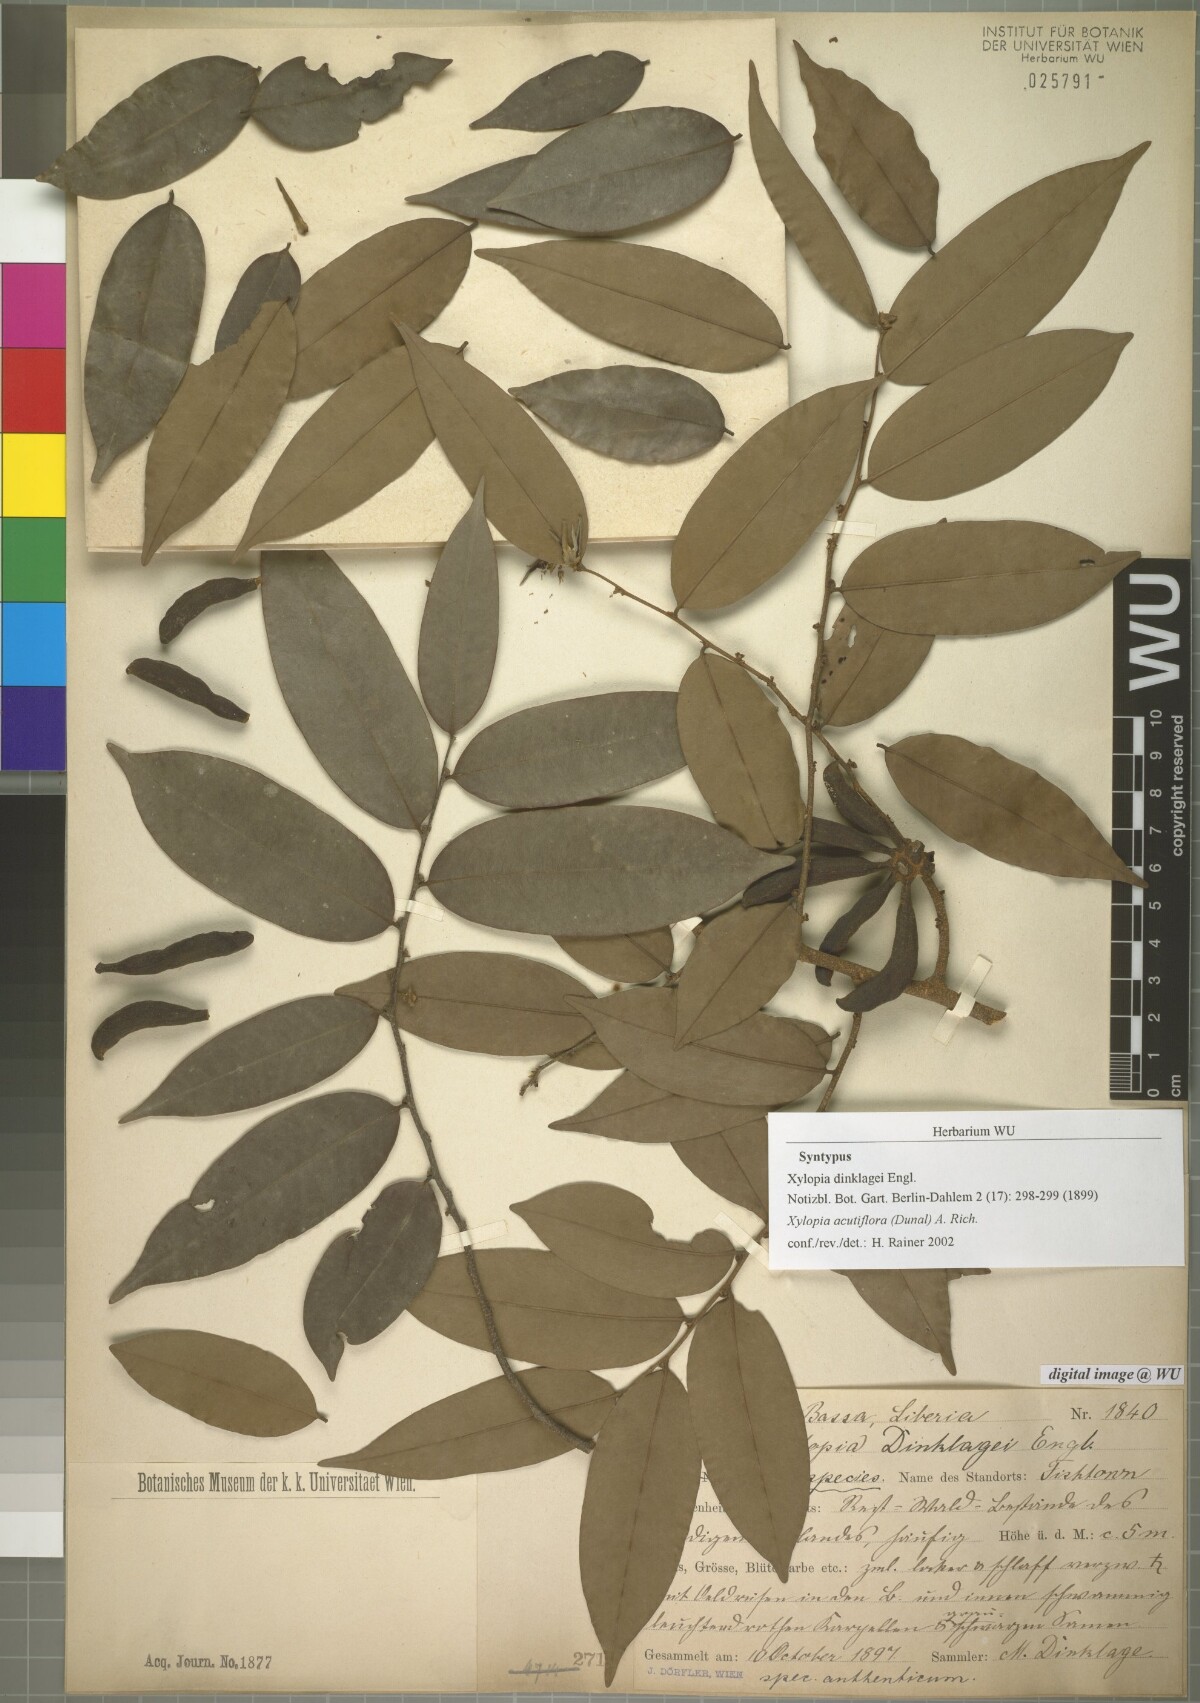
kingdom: Plantae
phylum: Tracheophyta
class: Magnoliopsida
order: Magnoliales
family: Annonaceae
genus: Xylopia
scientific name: Xylopia acutiflora
